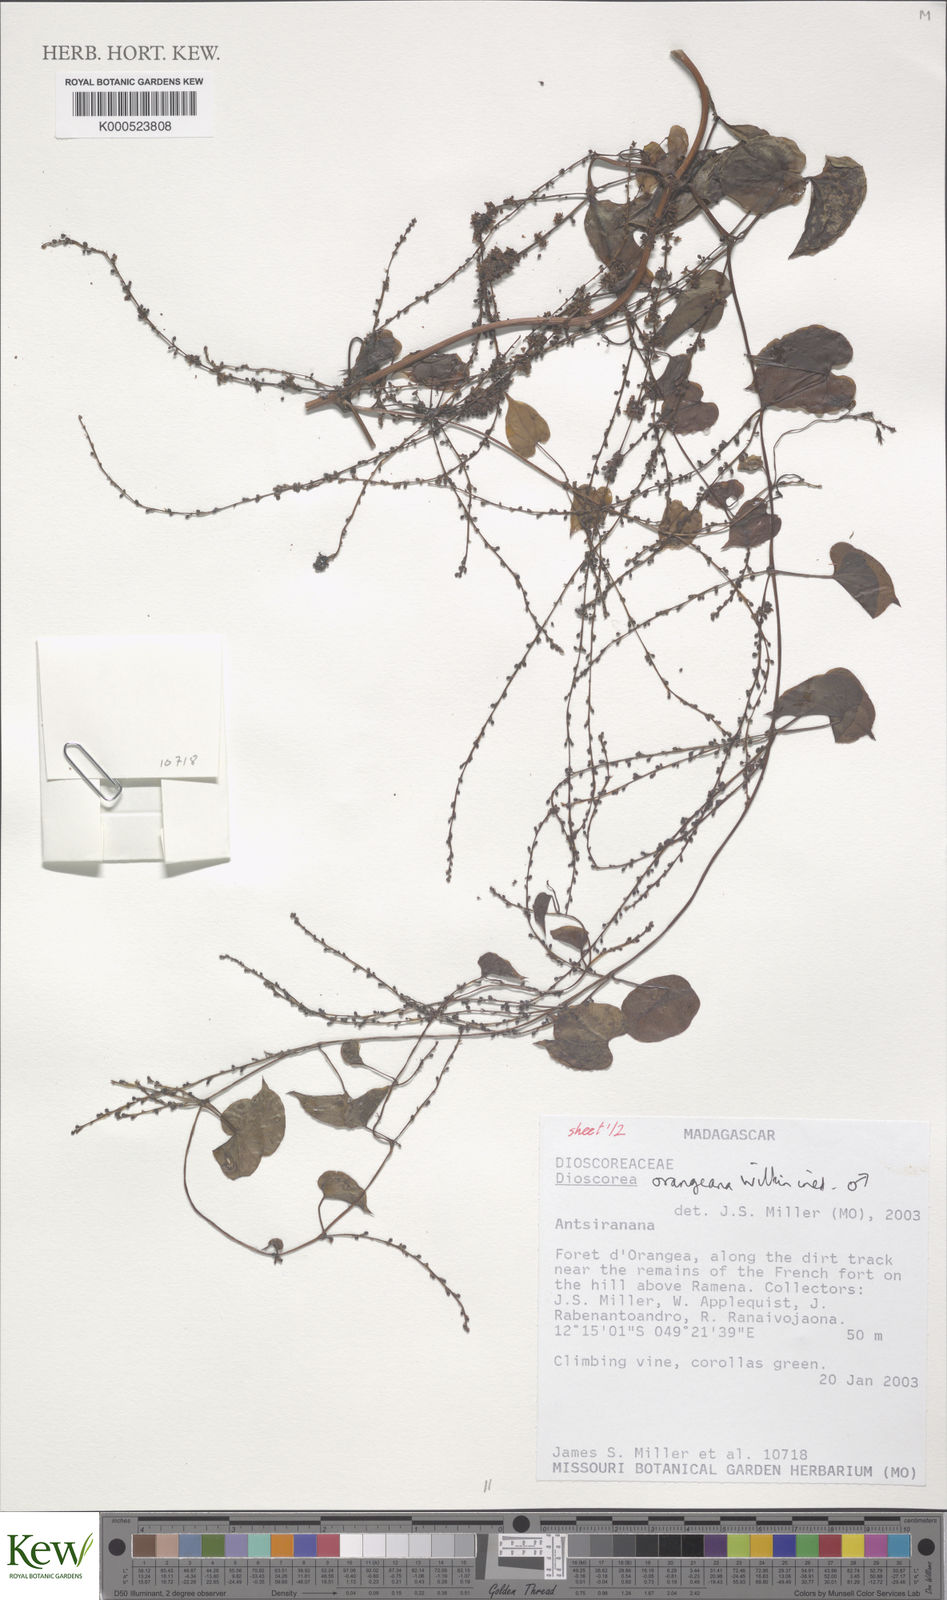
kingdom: Plantae
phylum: Tracheophyta
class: Liliopsida
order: Dioscoreales
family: Dioscoreaceae
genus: Dioscorea
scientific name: Dioscorea orangeana
